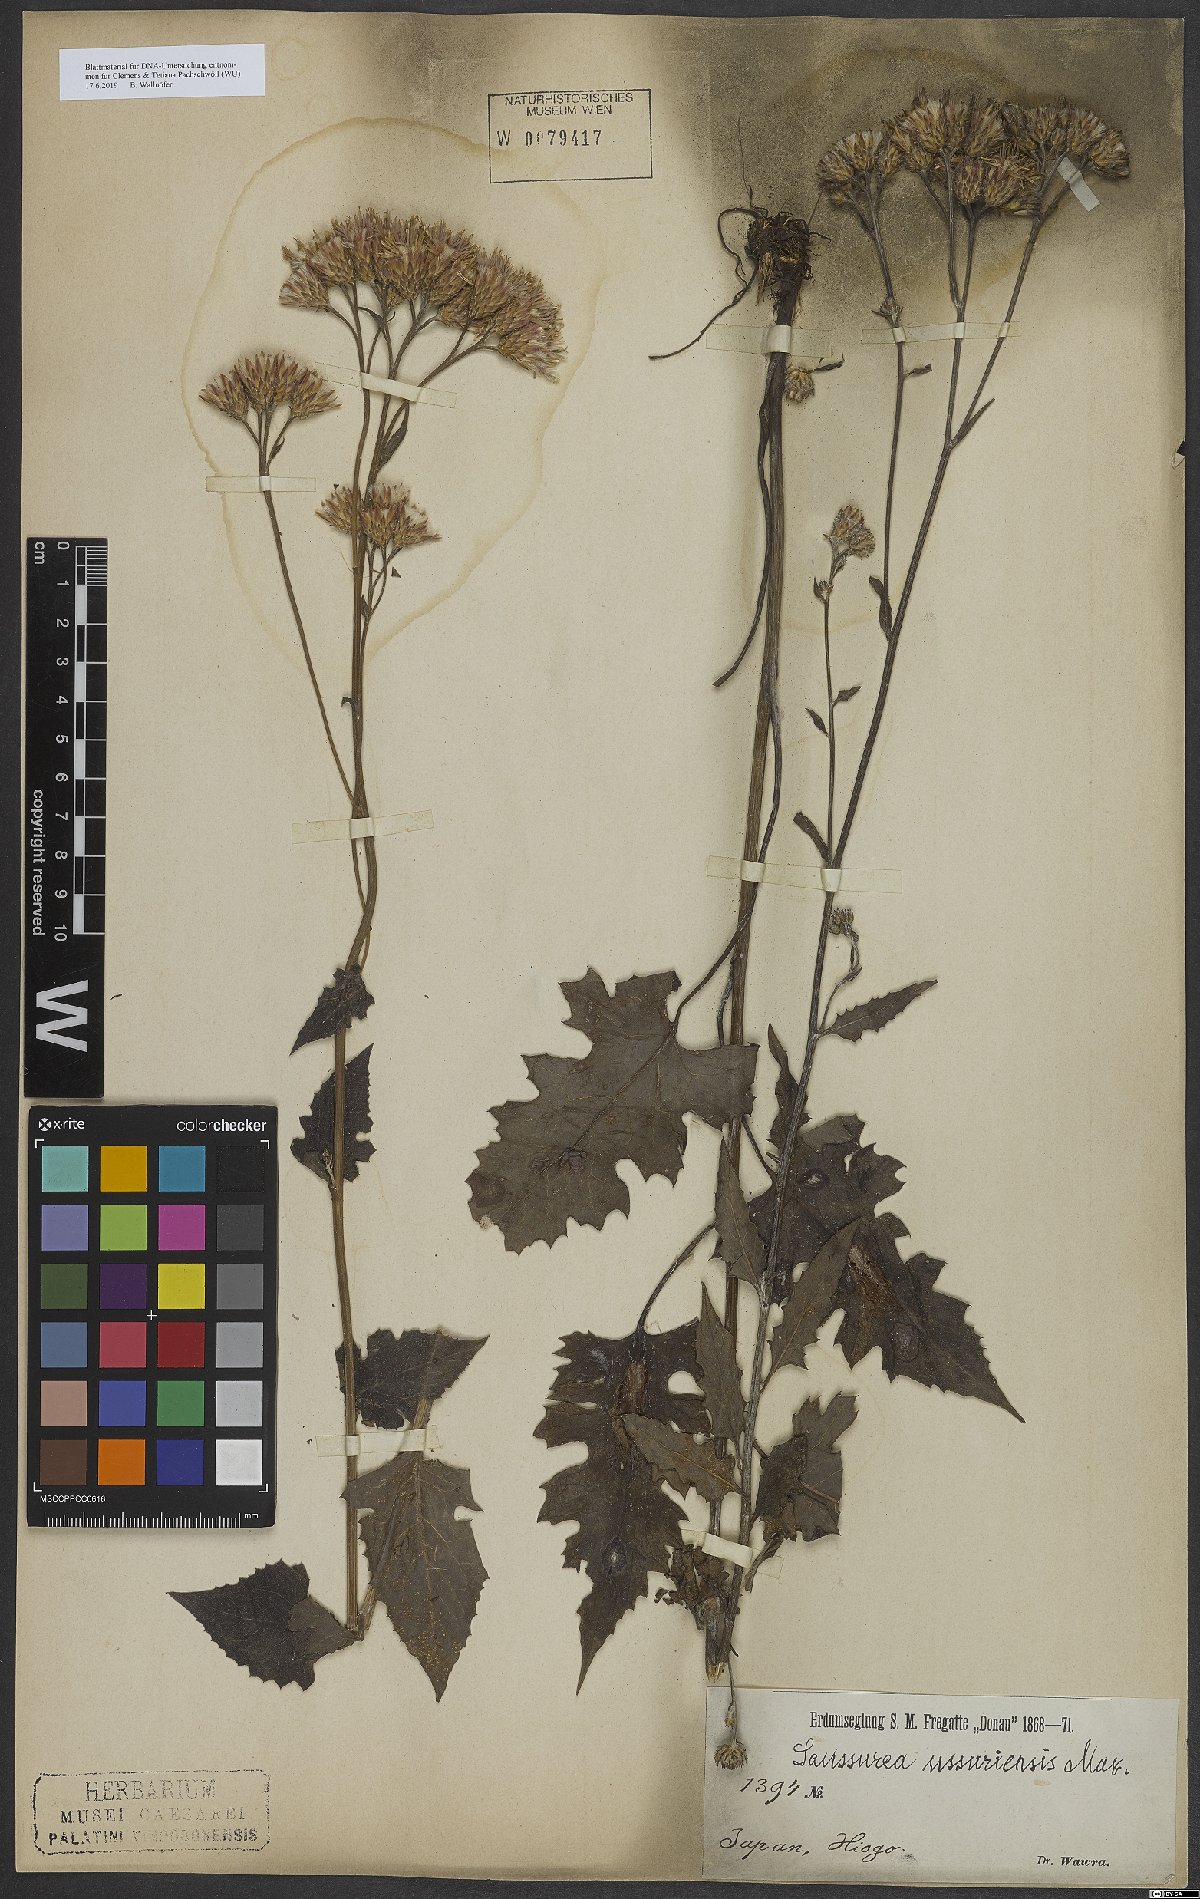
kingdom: Plantae
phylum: Tracheophyta
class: Magnoliopsida
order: Asterales
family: Asteraceae
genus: Saussurea
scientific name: Saussurea ussuriensis
